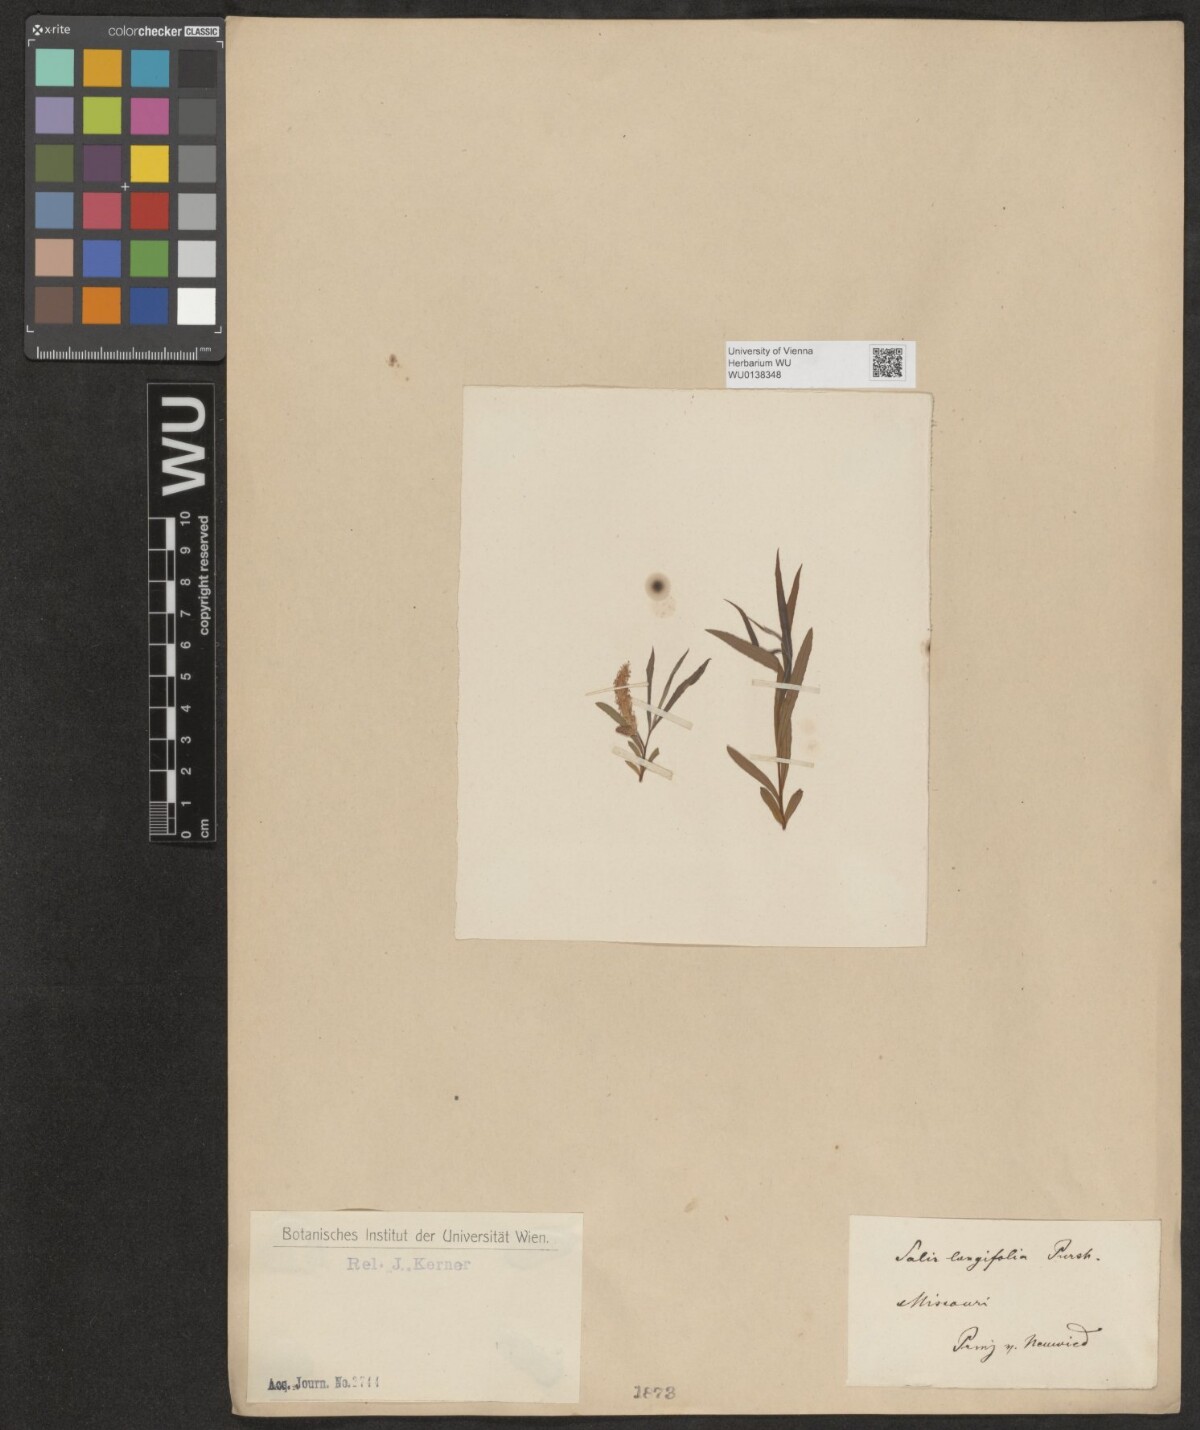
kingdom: Plantae
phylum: Tracheophyta
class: Magnoliopsida
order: Malpighiales
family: Salicaceae
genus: Salix
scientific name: Salix interior
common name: Sandbar willow
